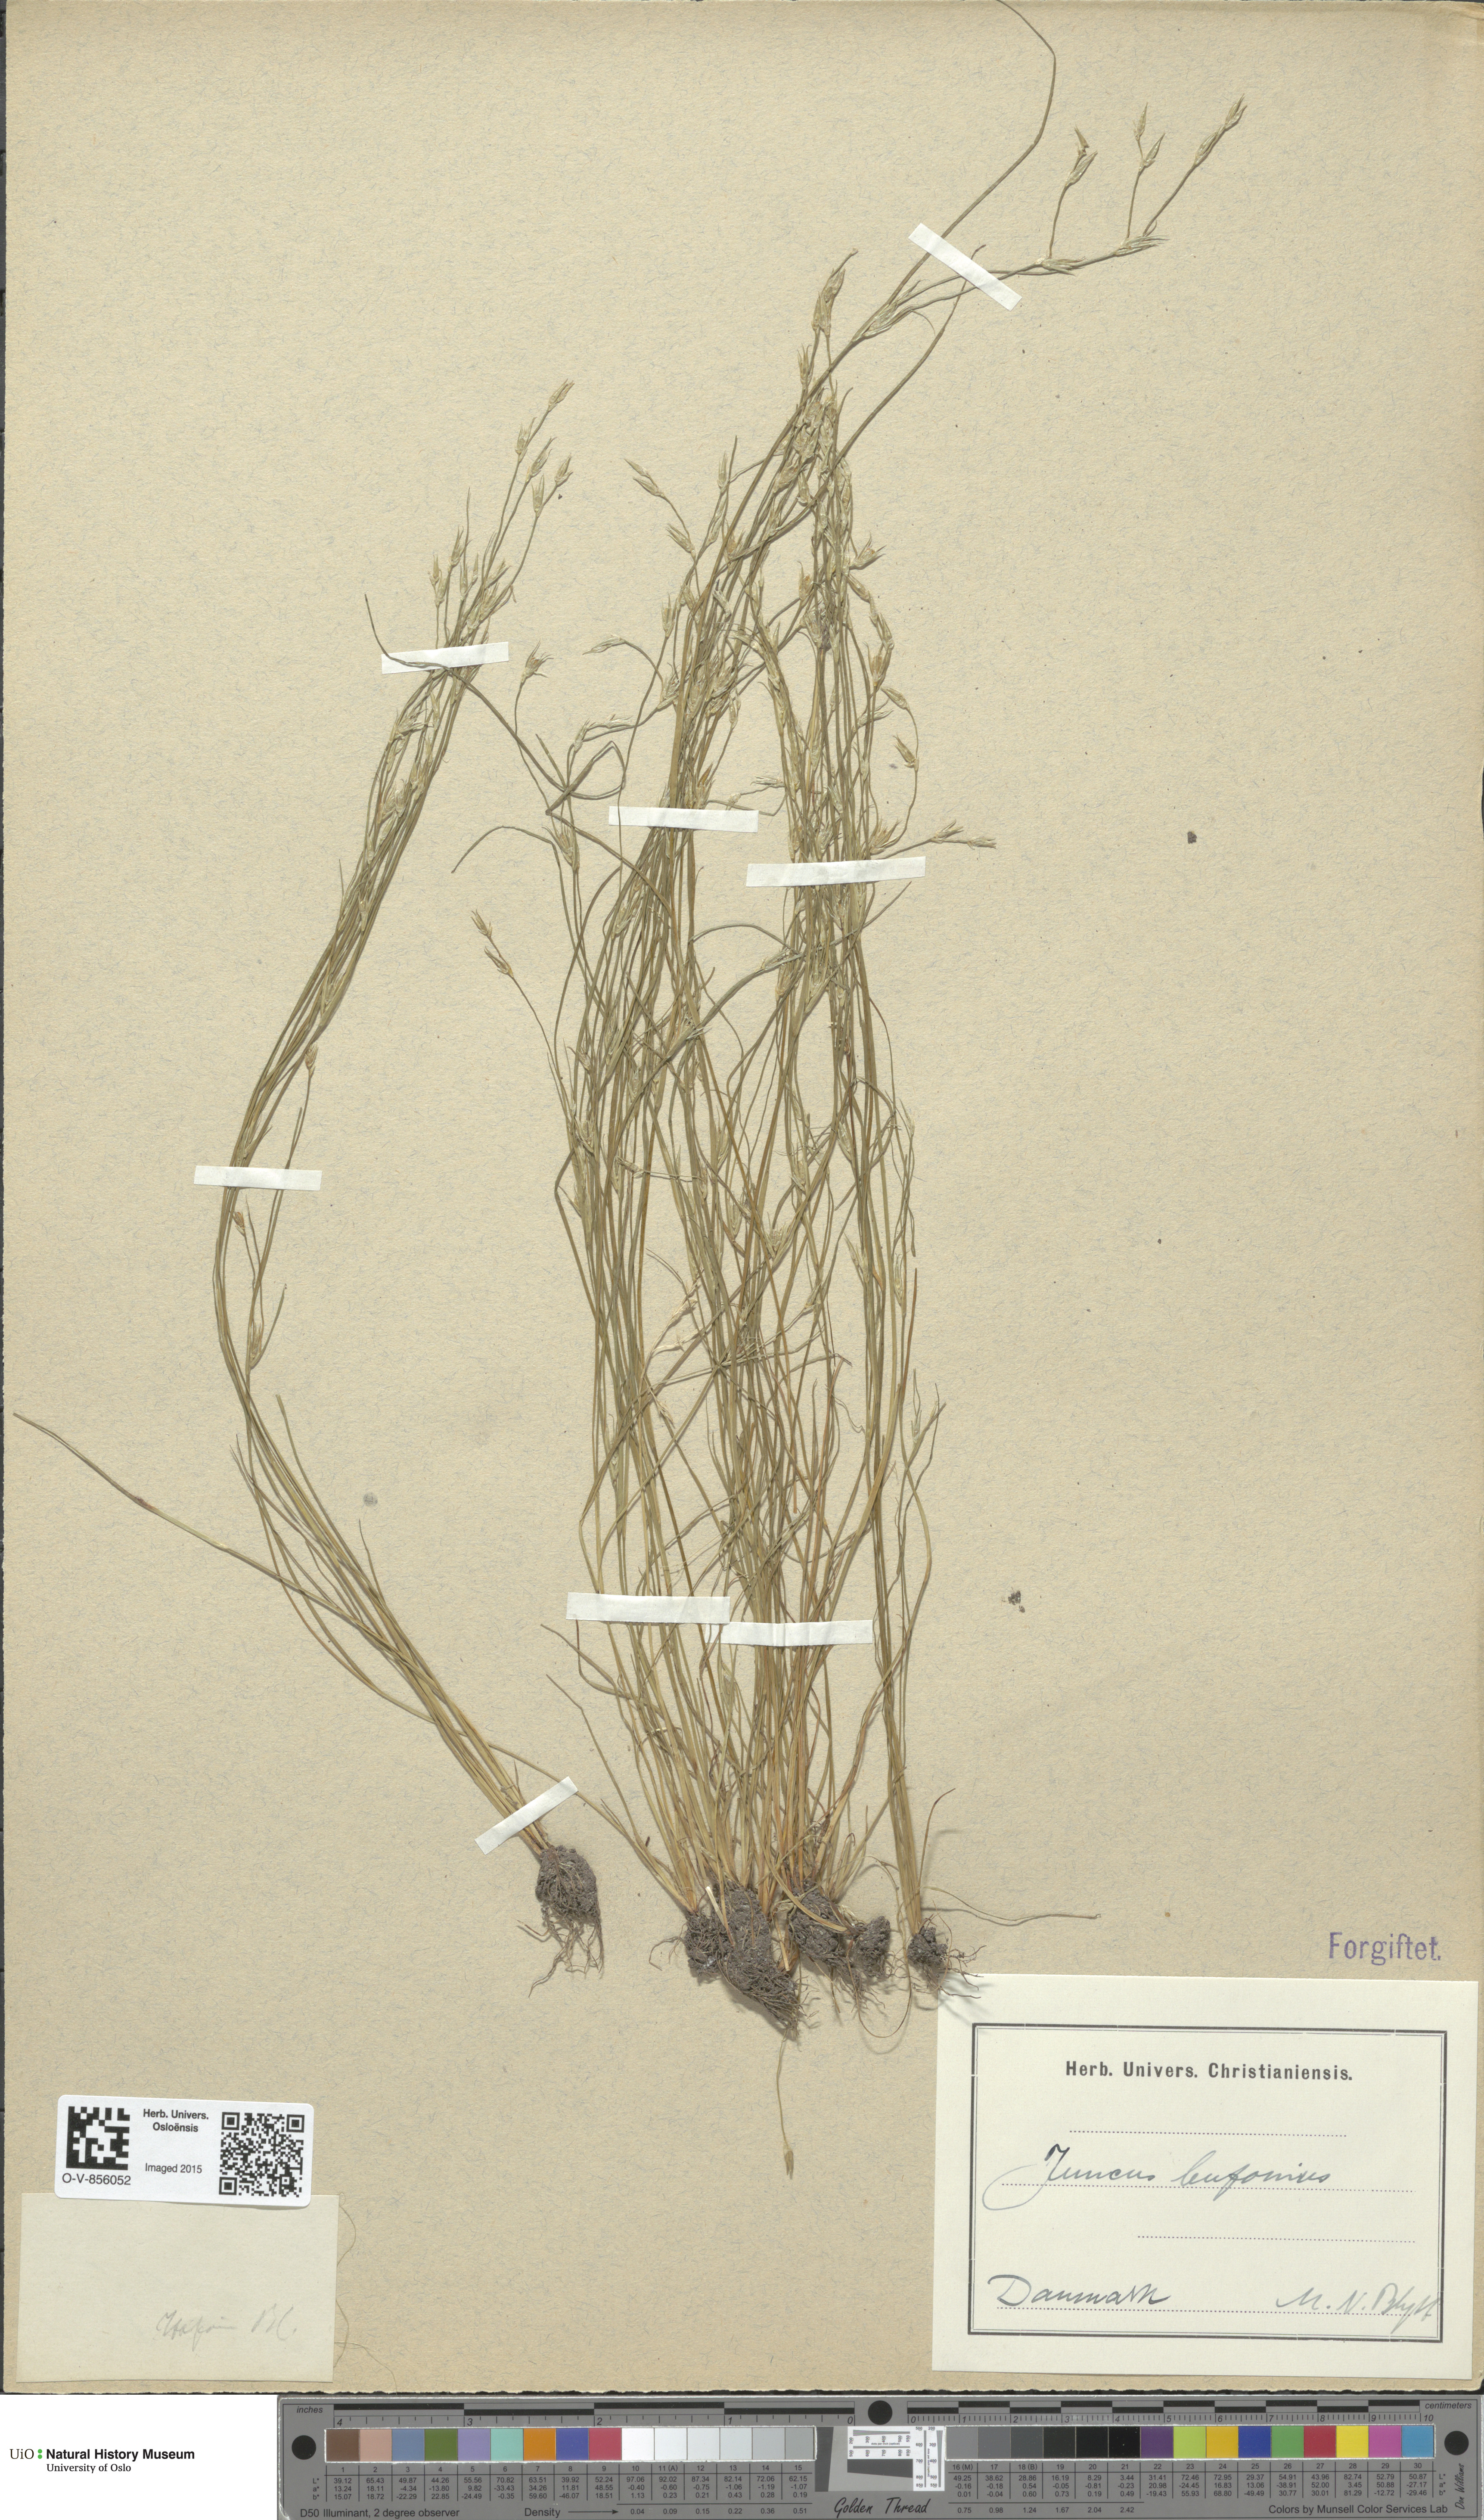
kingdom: Plantae
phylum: Tracheophyta
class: Liliopsida
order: Poales
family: Juncaceae
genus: Juncus
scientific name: Juncus bufonius
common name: Toad rush
